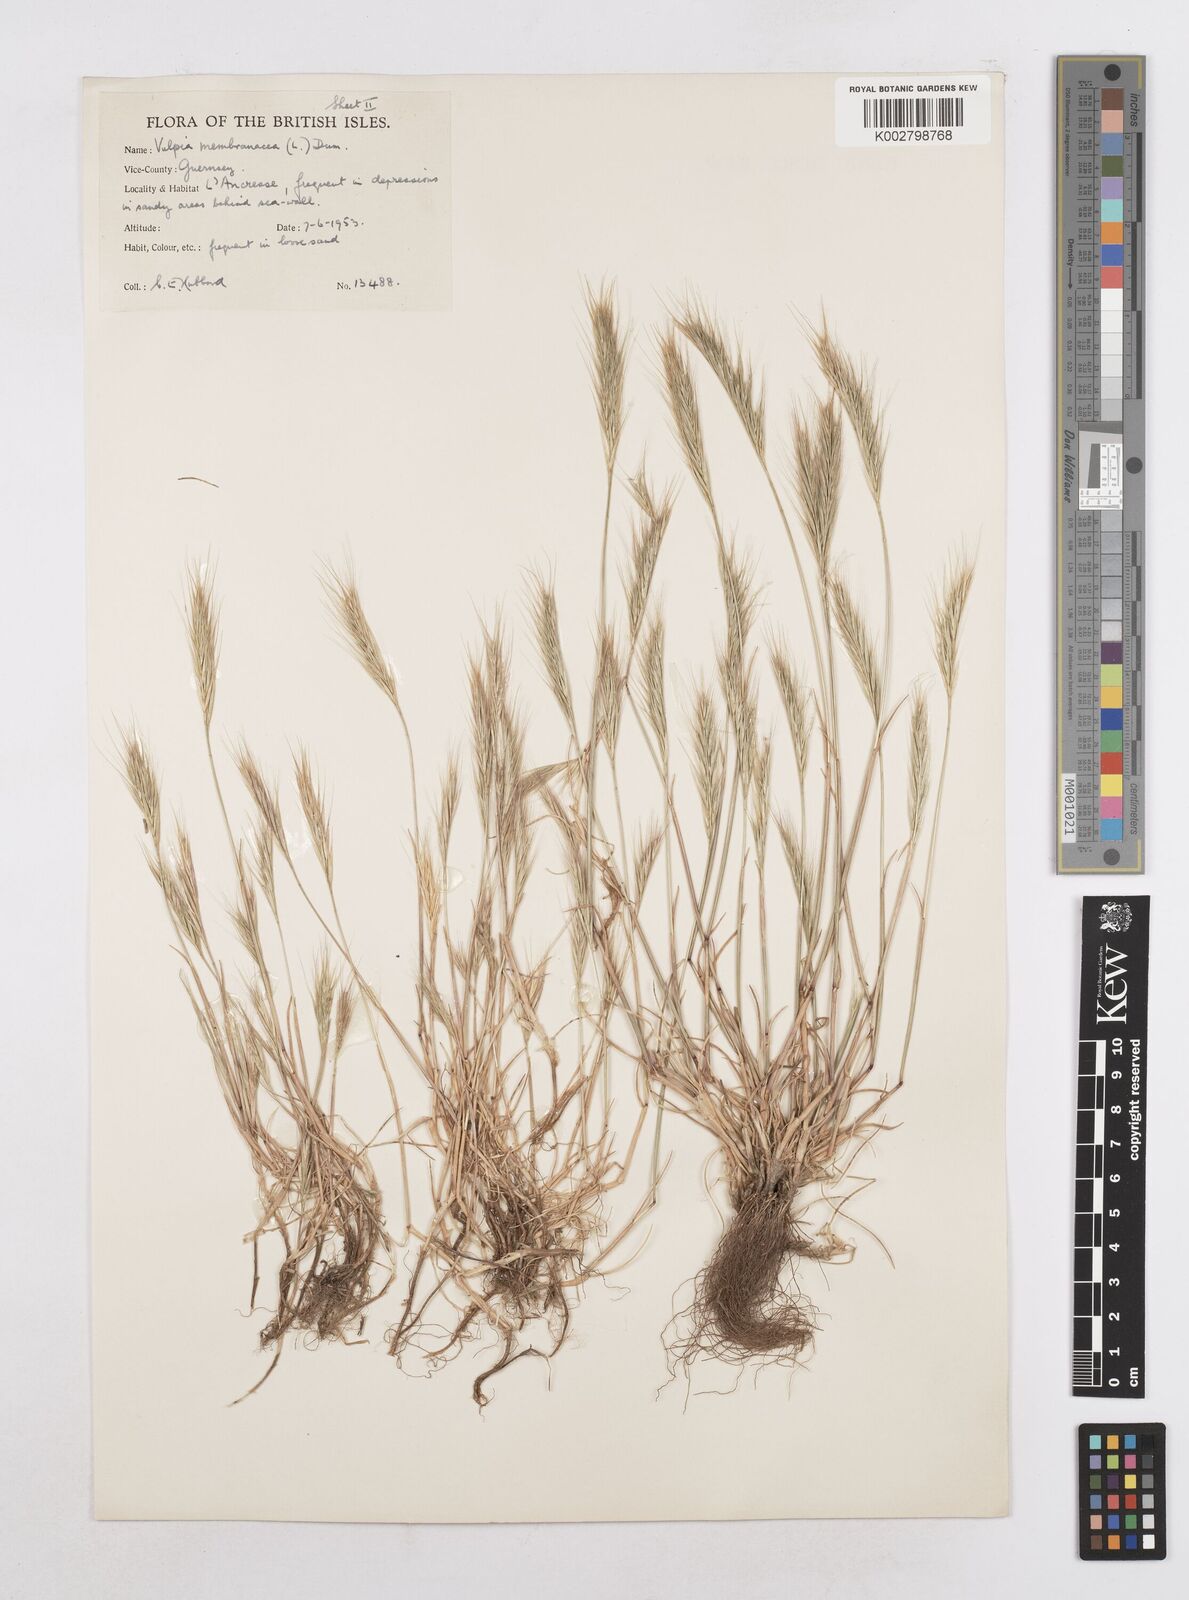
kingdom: Plantae
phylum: Tracheophyta
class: Liliopsida
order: Poales
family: Poaceae
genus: Festuca
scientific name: Festuca fasciculata
